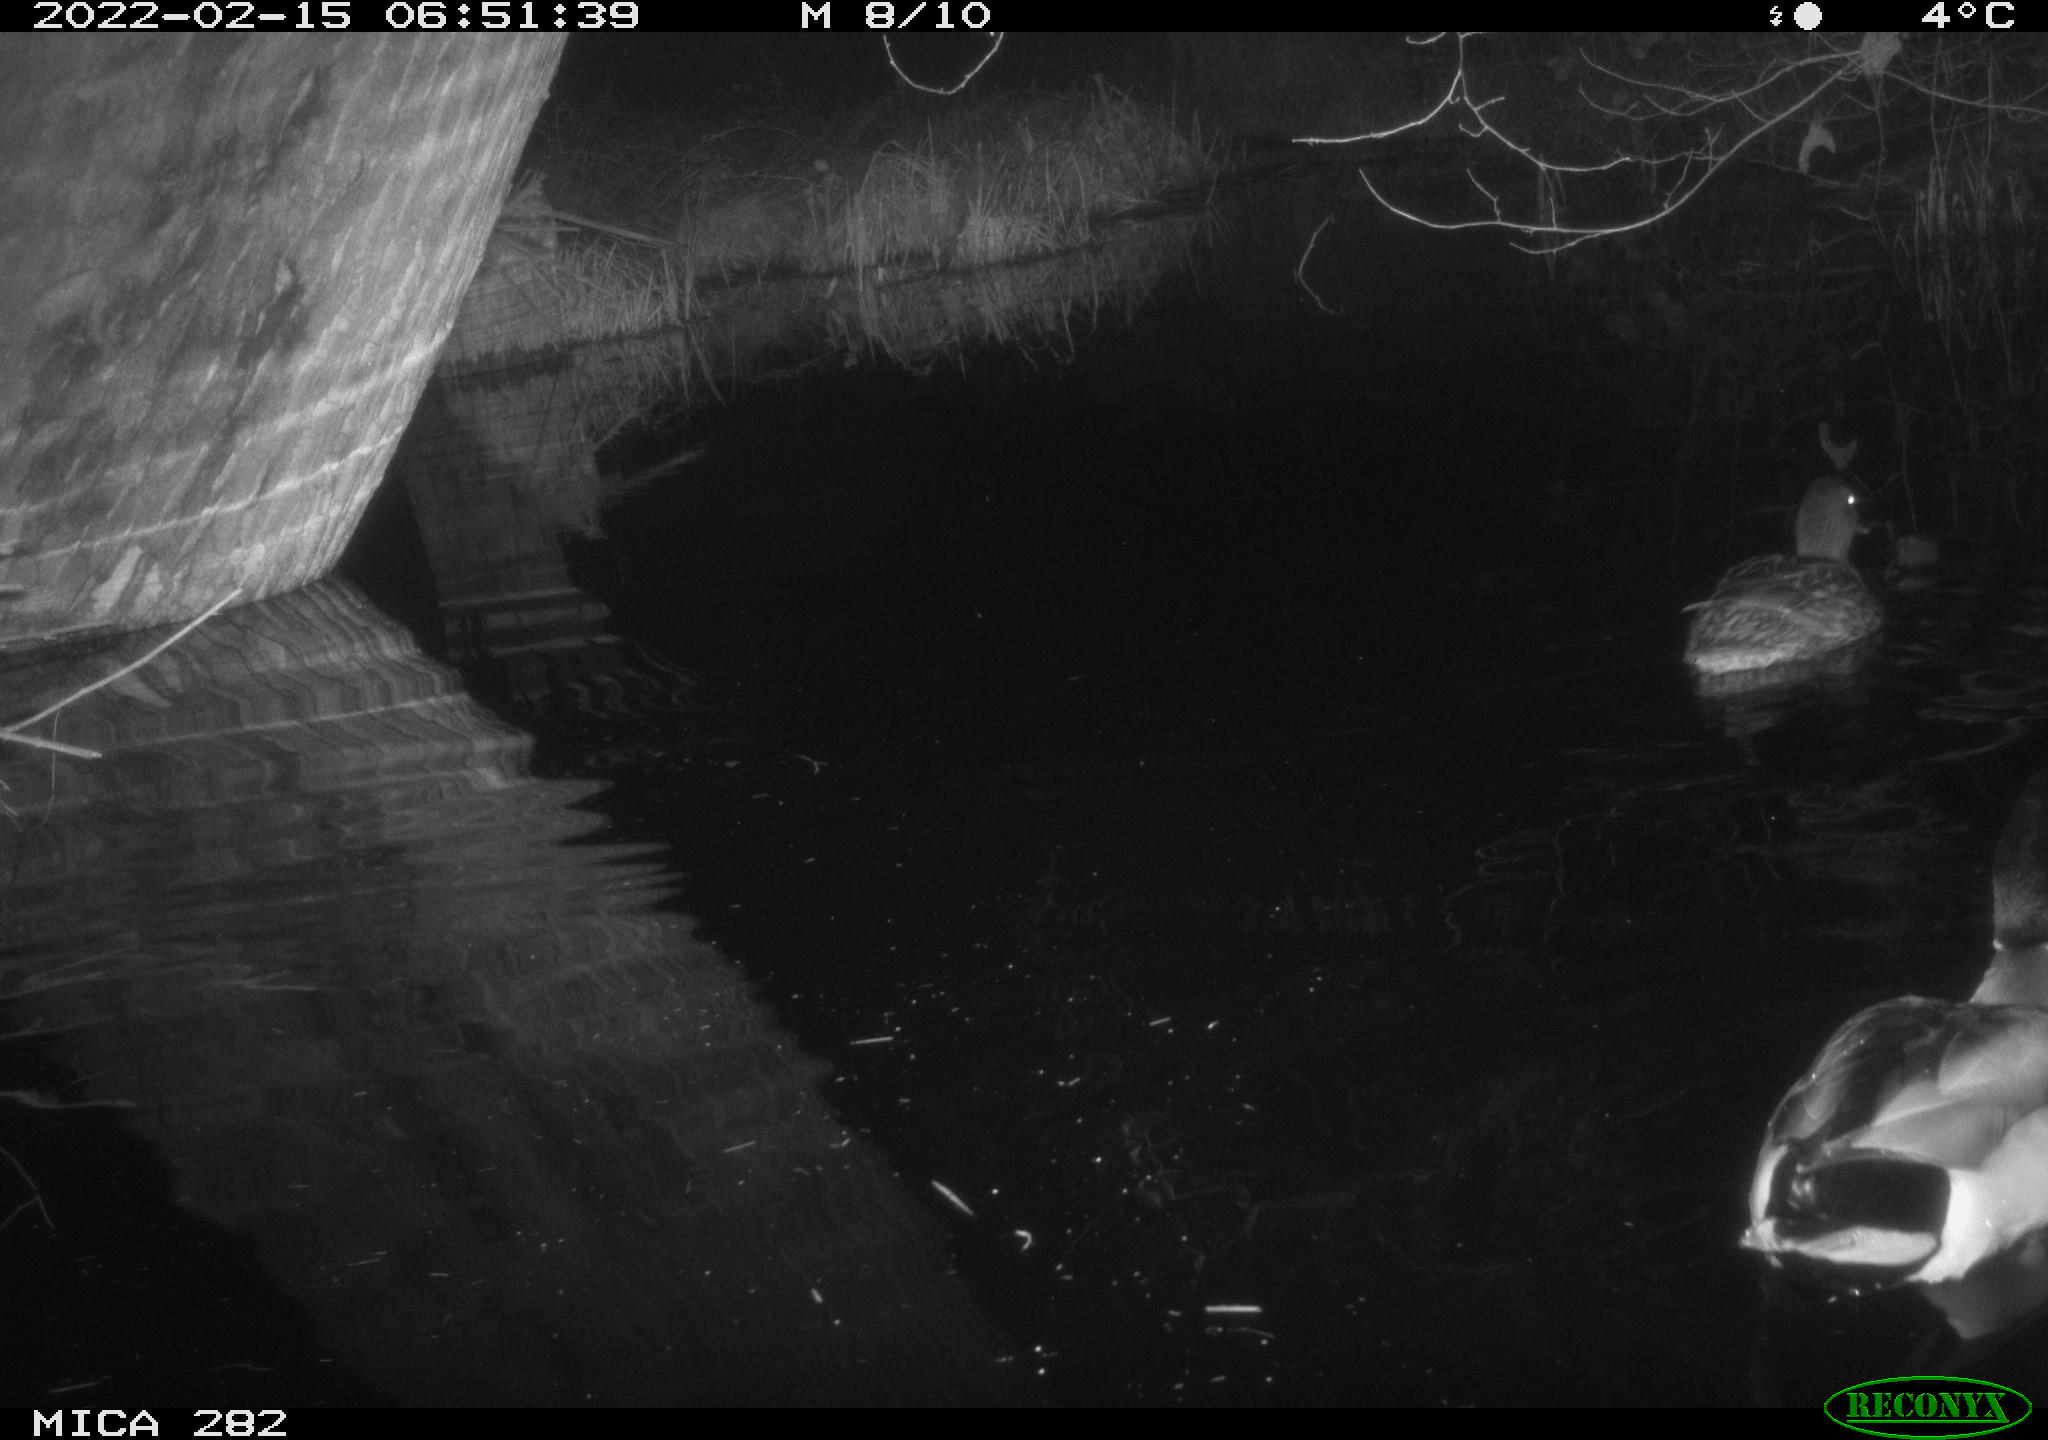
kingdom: Animalia
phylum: Chordata
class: Aves
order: Anseriformes
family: Anatidae
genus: Mareca
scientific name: Mareca strepera
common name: Gadwall
